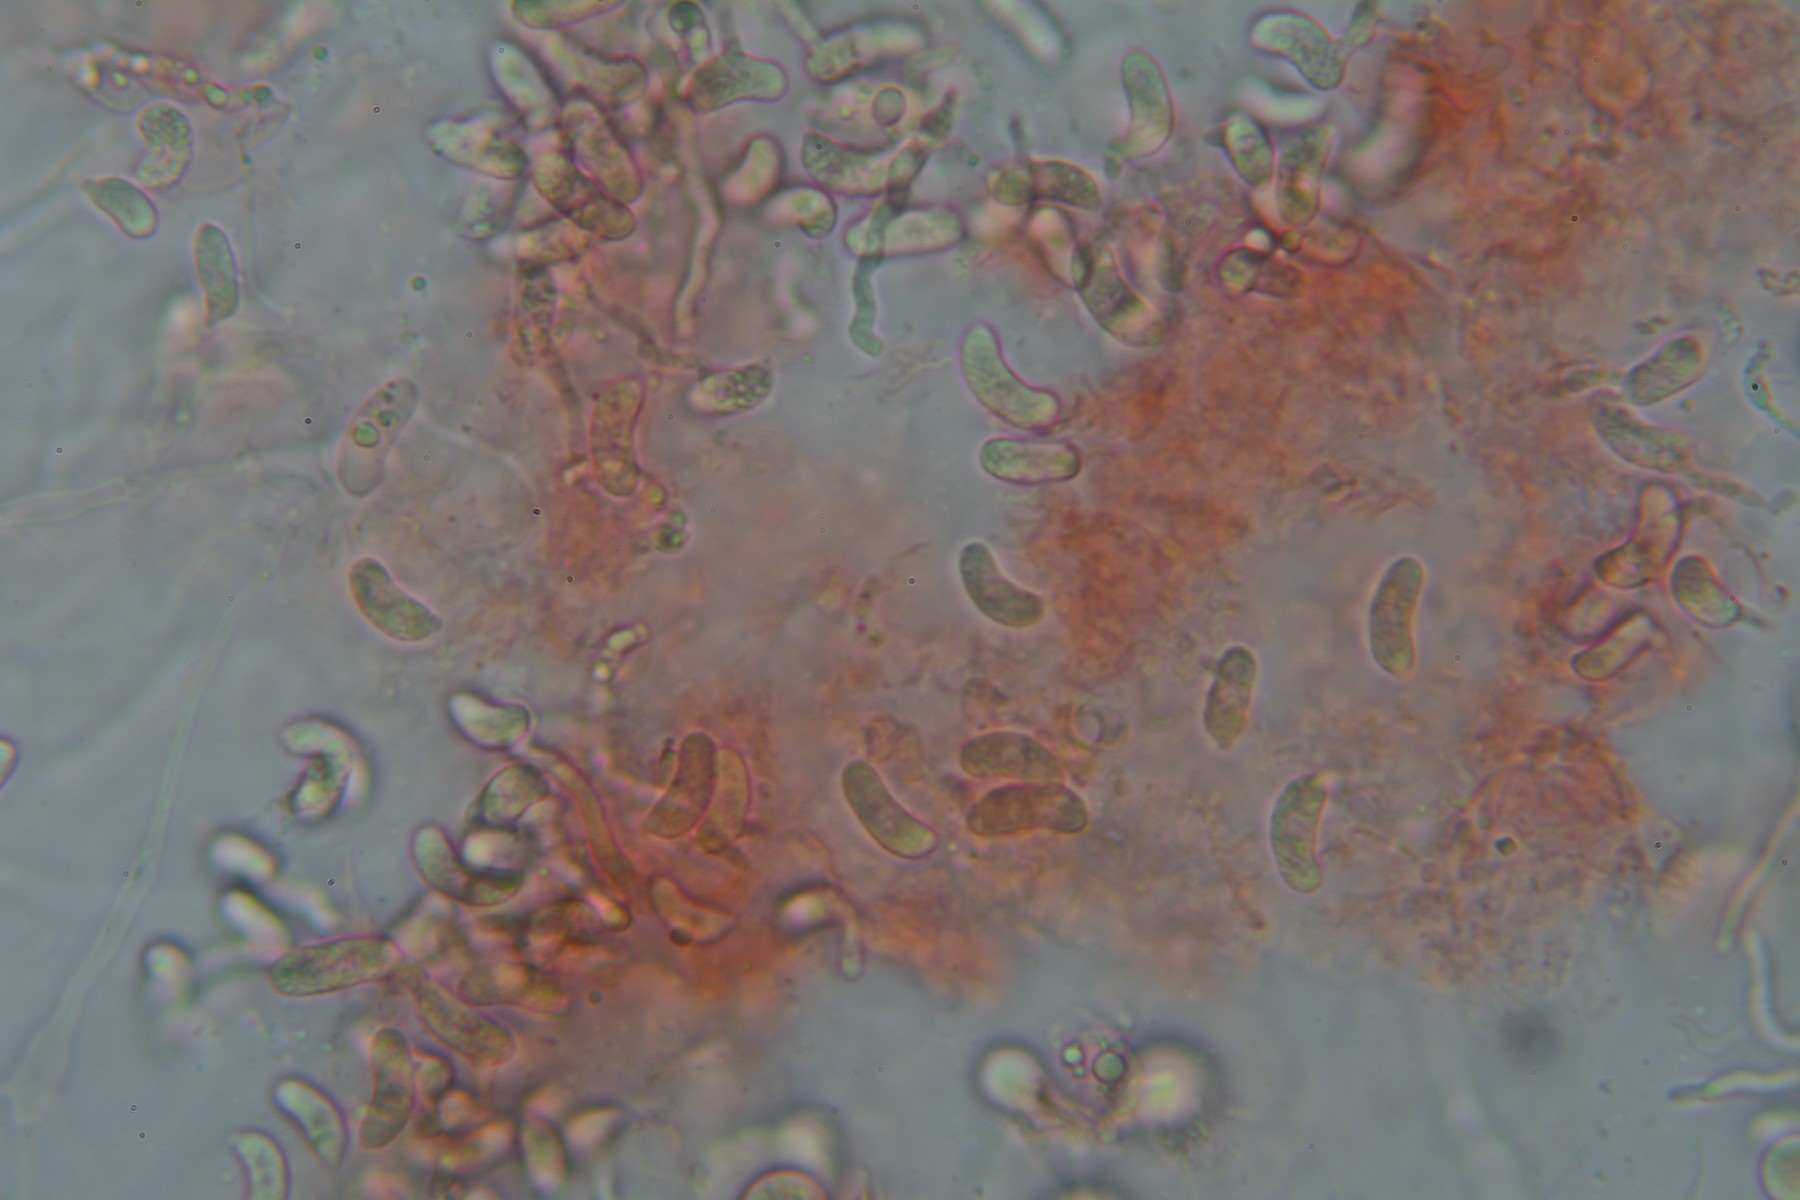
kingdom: Fungi
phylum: Basidiomycota
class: Agaricomycetes
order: Sebacinales
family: Sebacinaceae
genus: Sebacina
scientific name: Sebacina grisea
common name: blågrå bævrehinde
